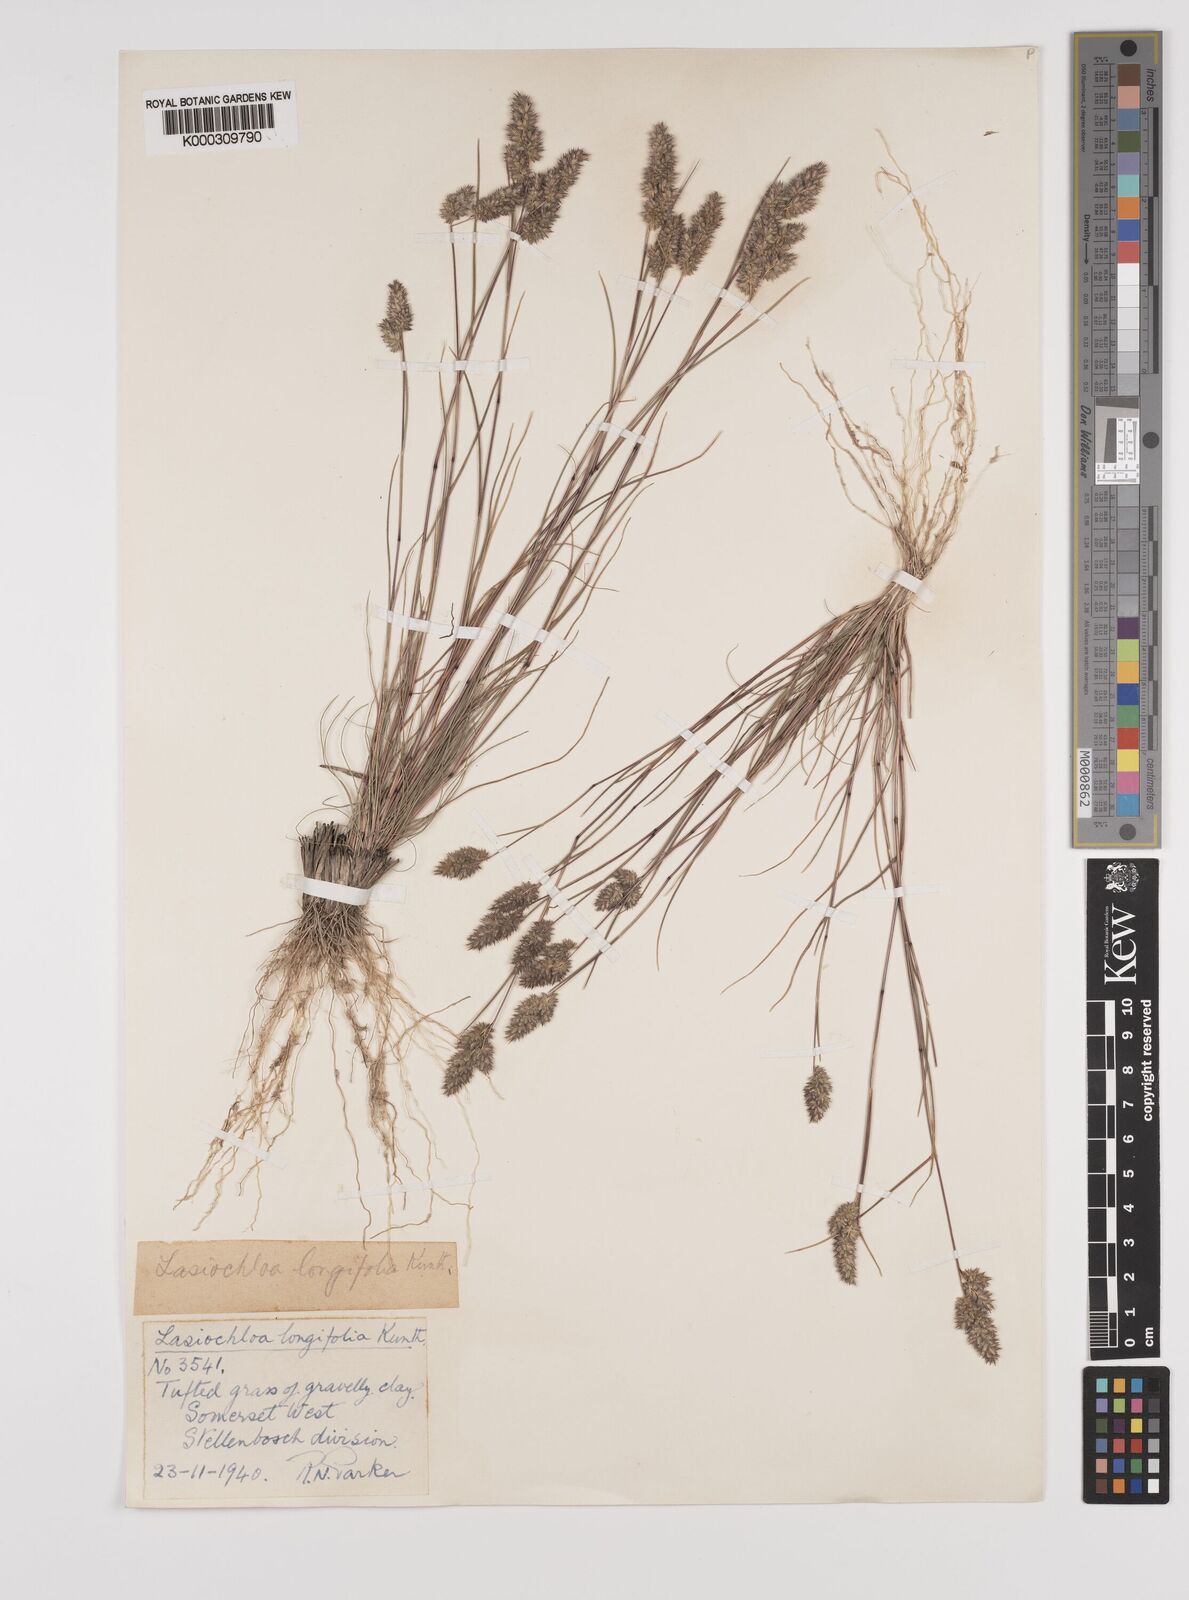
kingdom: Plantae
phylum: Tracheophyta
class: Liliopsida
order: Poales
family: Poaceae
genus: Tribolium
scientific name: Tribolium hispidum
